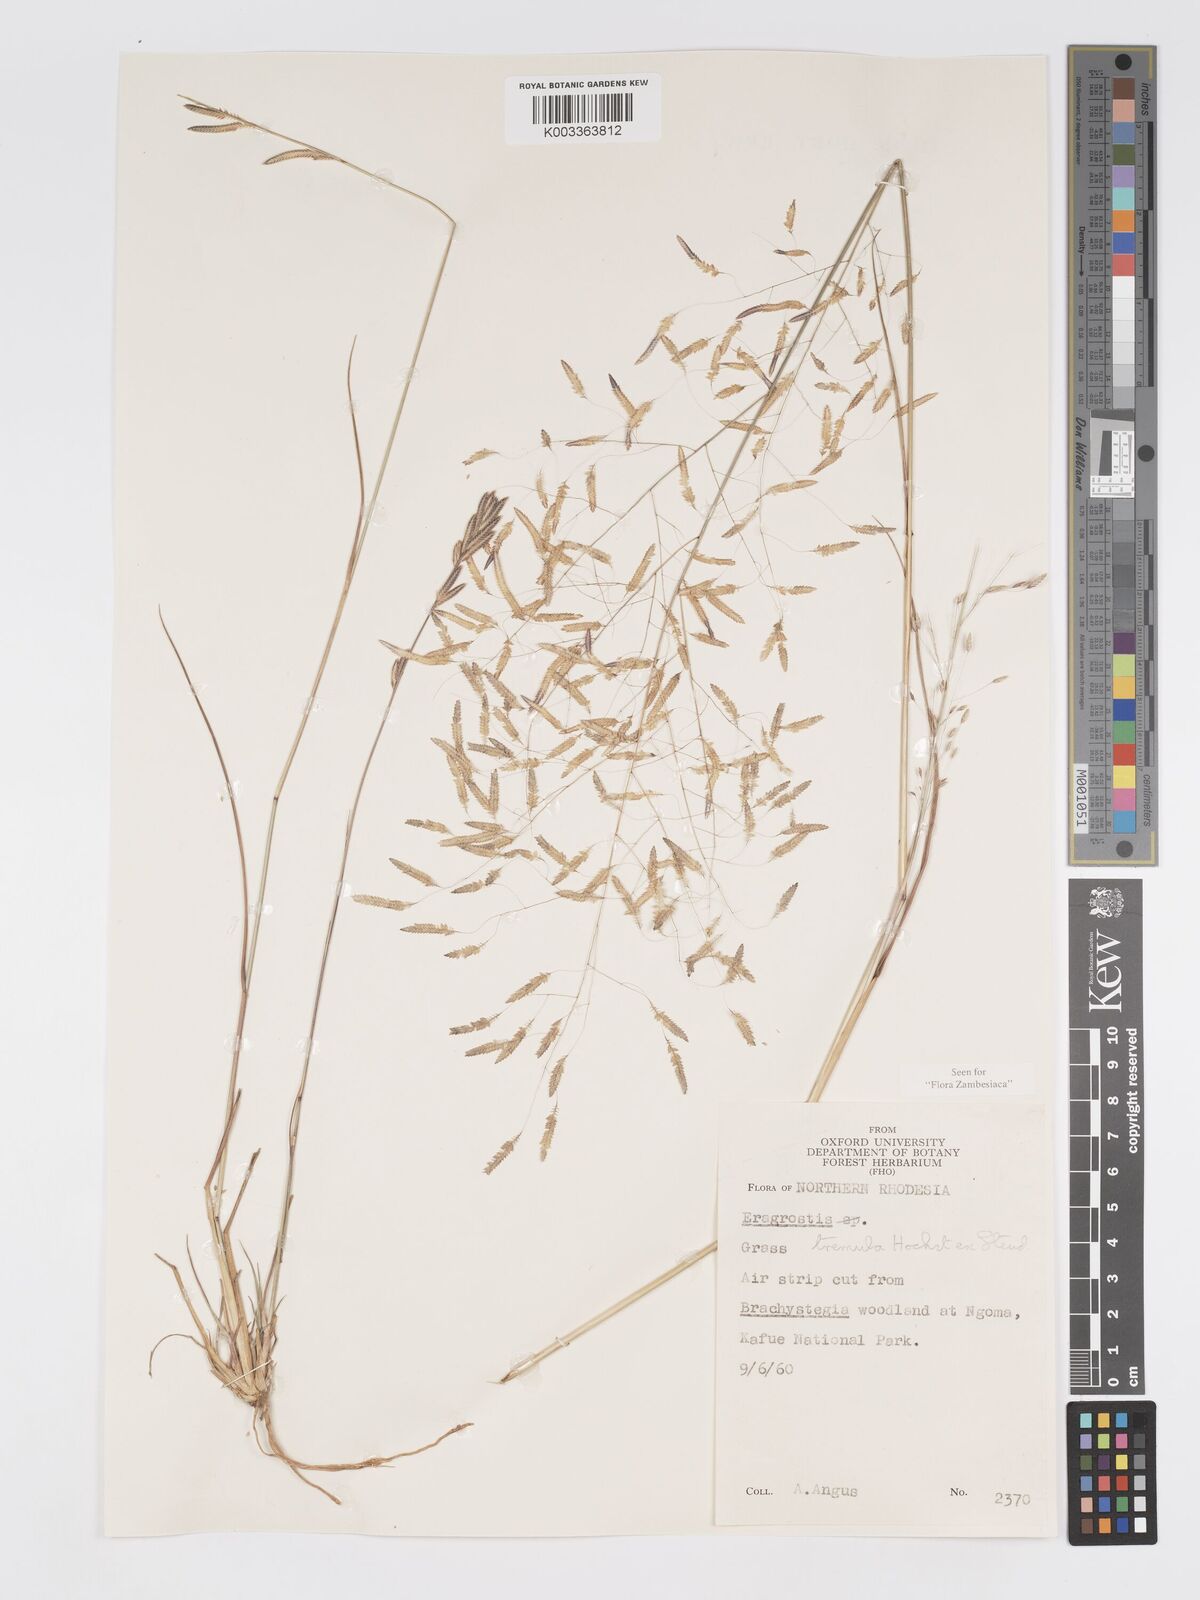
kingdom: Plantae
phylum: Tracheophyta
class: Liliopsida
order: Poales
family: Poaceae
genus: Eragrostis
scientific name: Eragrostis tremula
